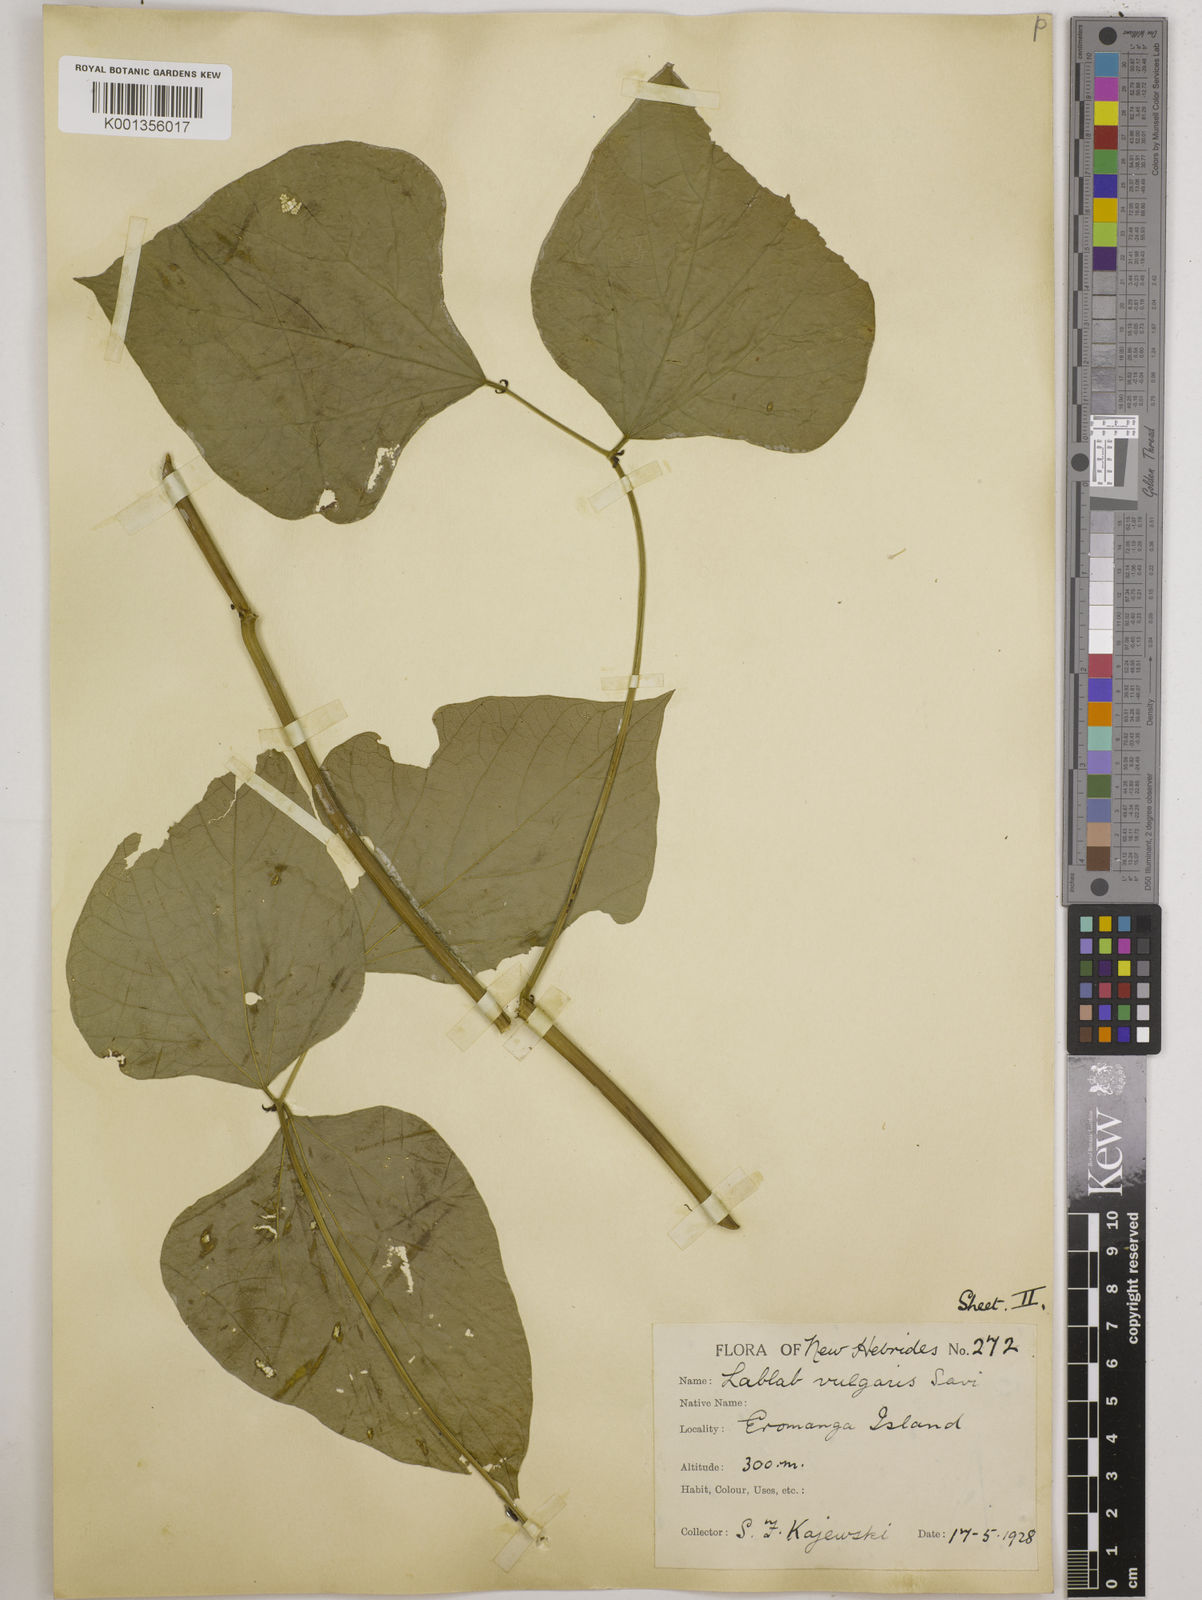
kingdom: Plantae
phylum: Tracheophyta
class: Magnoliopsida
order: Fabales
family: Fabaceae
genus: Lablab
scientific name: Lablab purpureus
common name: Lablab-bean
